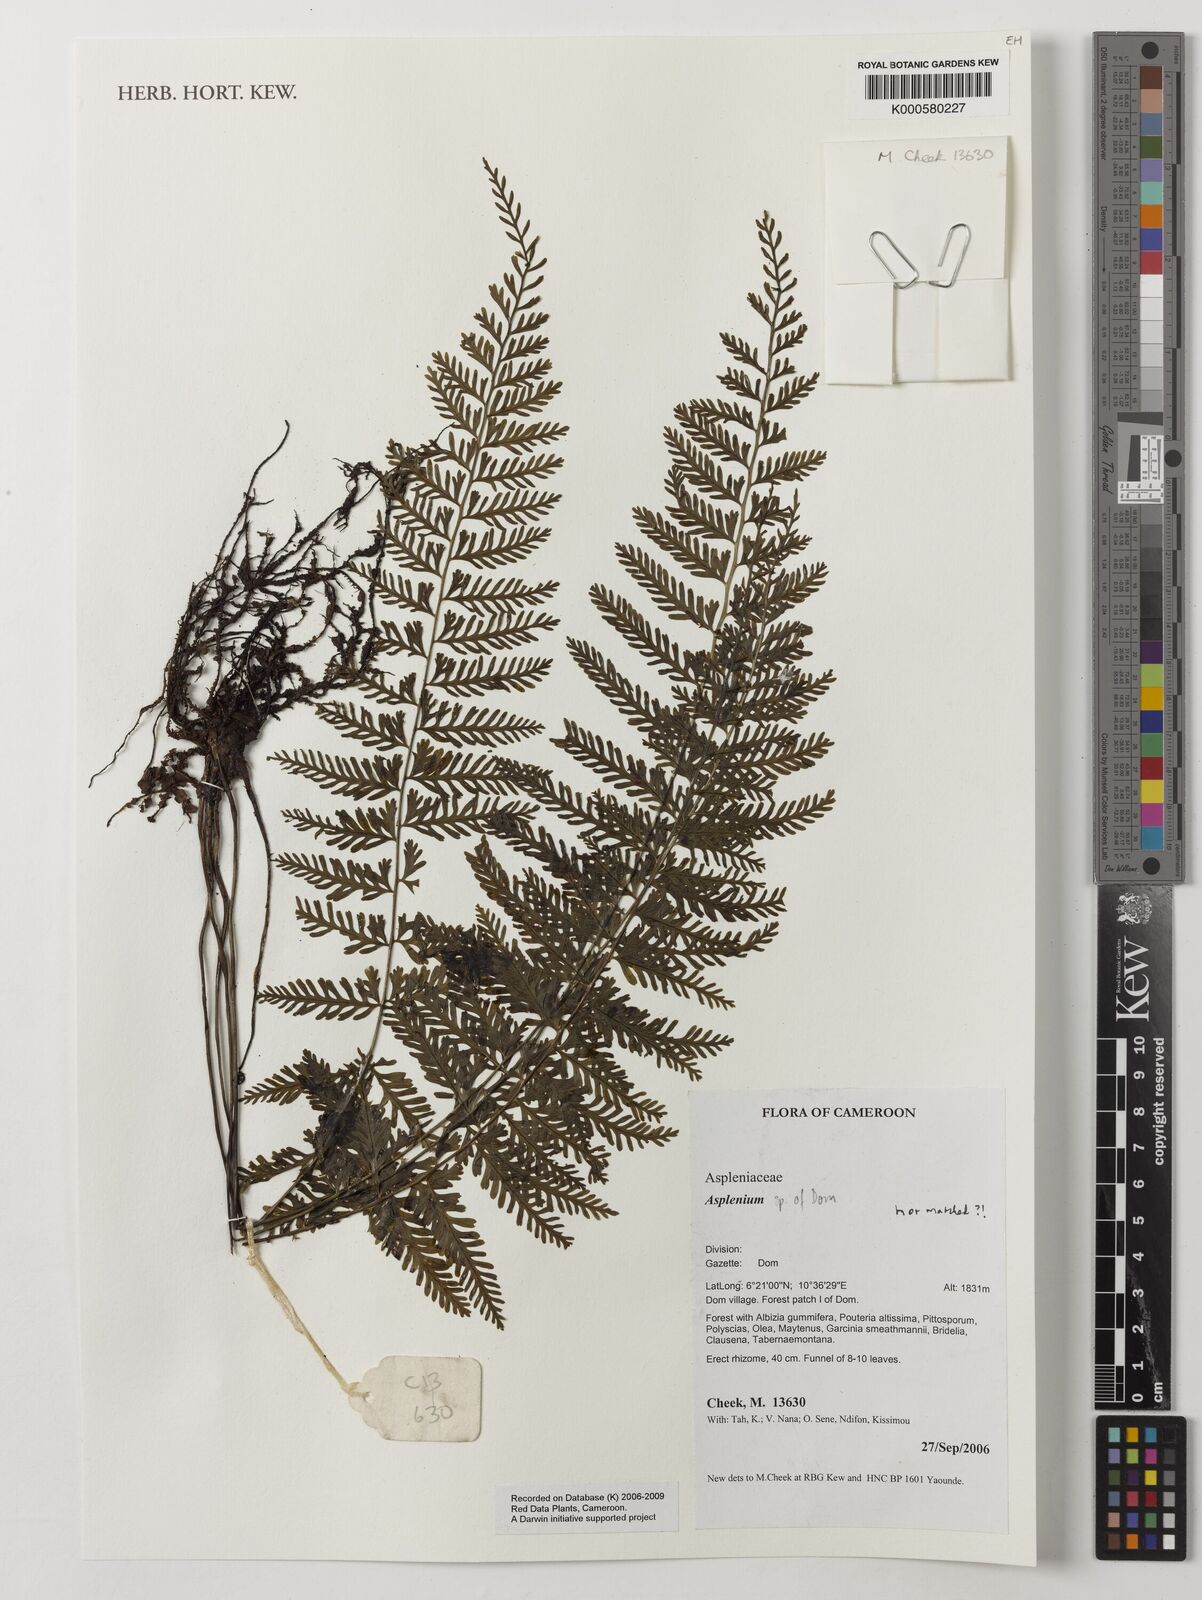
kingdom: Plantae
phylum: Tracheophyta
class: Polypodiopsida
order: Polypodiales
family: Aspleniaceae
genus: Asplenium
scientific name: Asplenium
